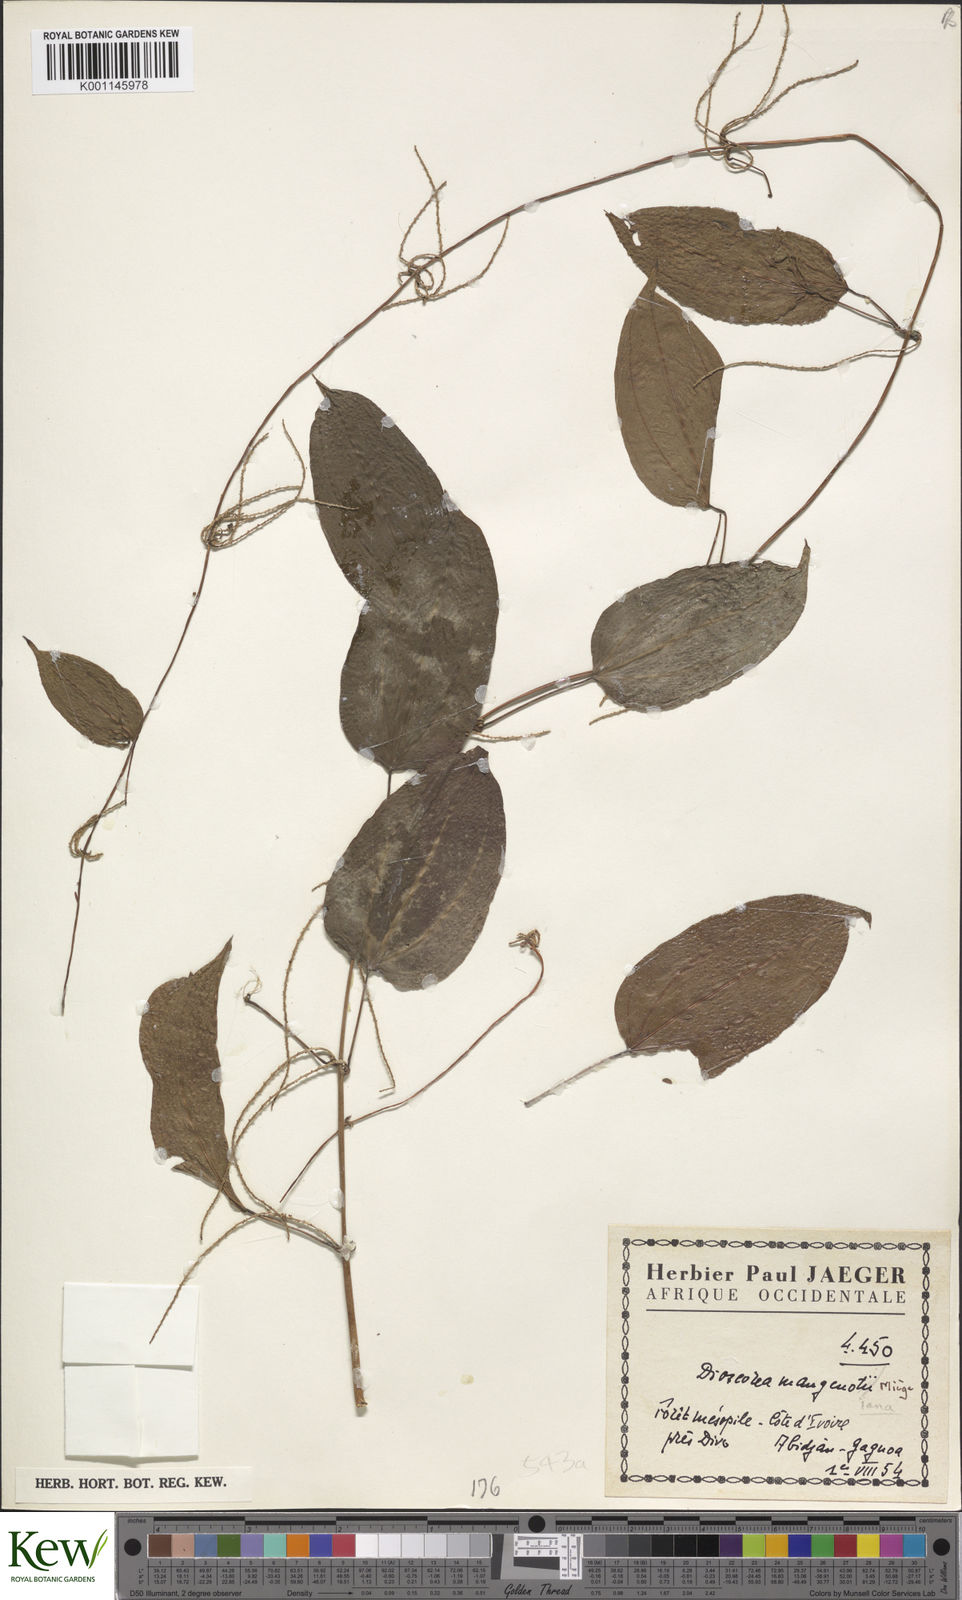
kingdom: Plantae
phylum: Tracheophyta
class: Liliopsida
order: Dioscoreales
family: Dioscoreaceae
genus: Dioscorea
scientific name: Dioscorea
